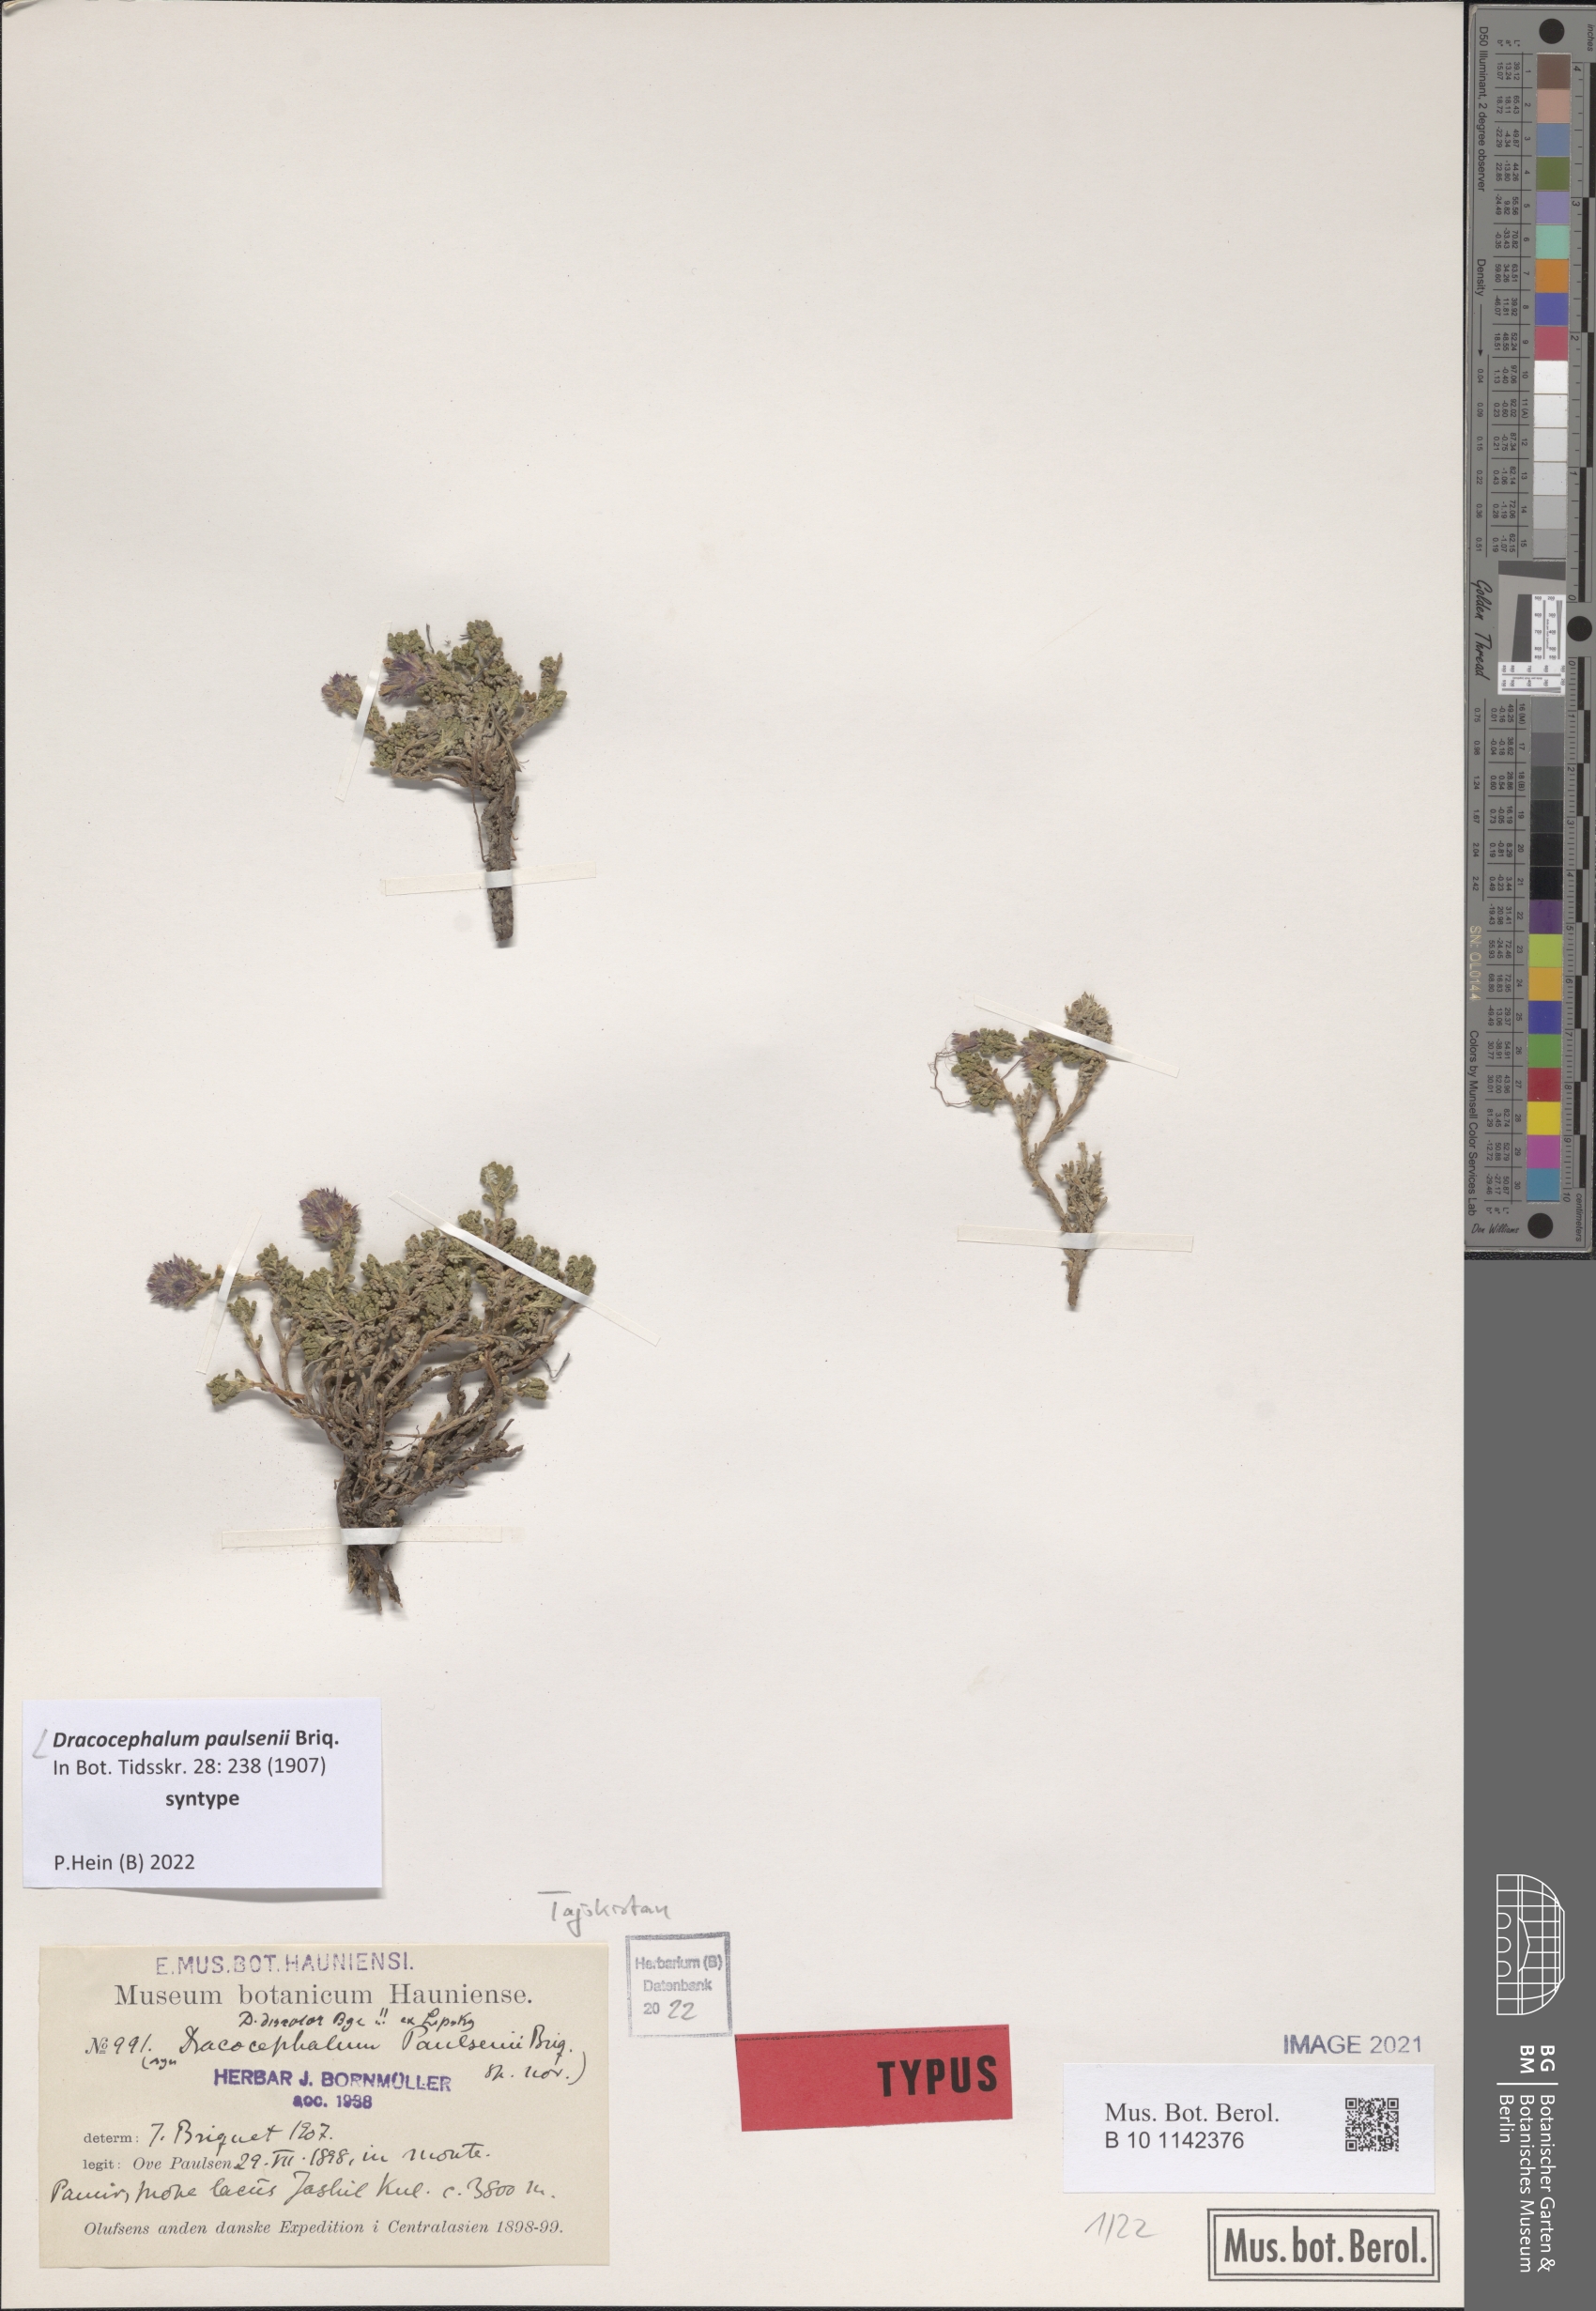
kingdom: Plantae
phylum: Tracheophyta
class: Magnoliopsida
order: Lamiales
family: Lamiaceae
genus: Dracocephalum
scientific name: Dracocephalum paulsenii
